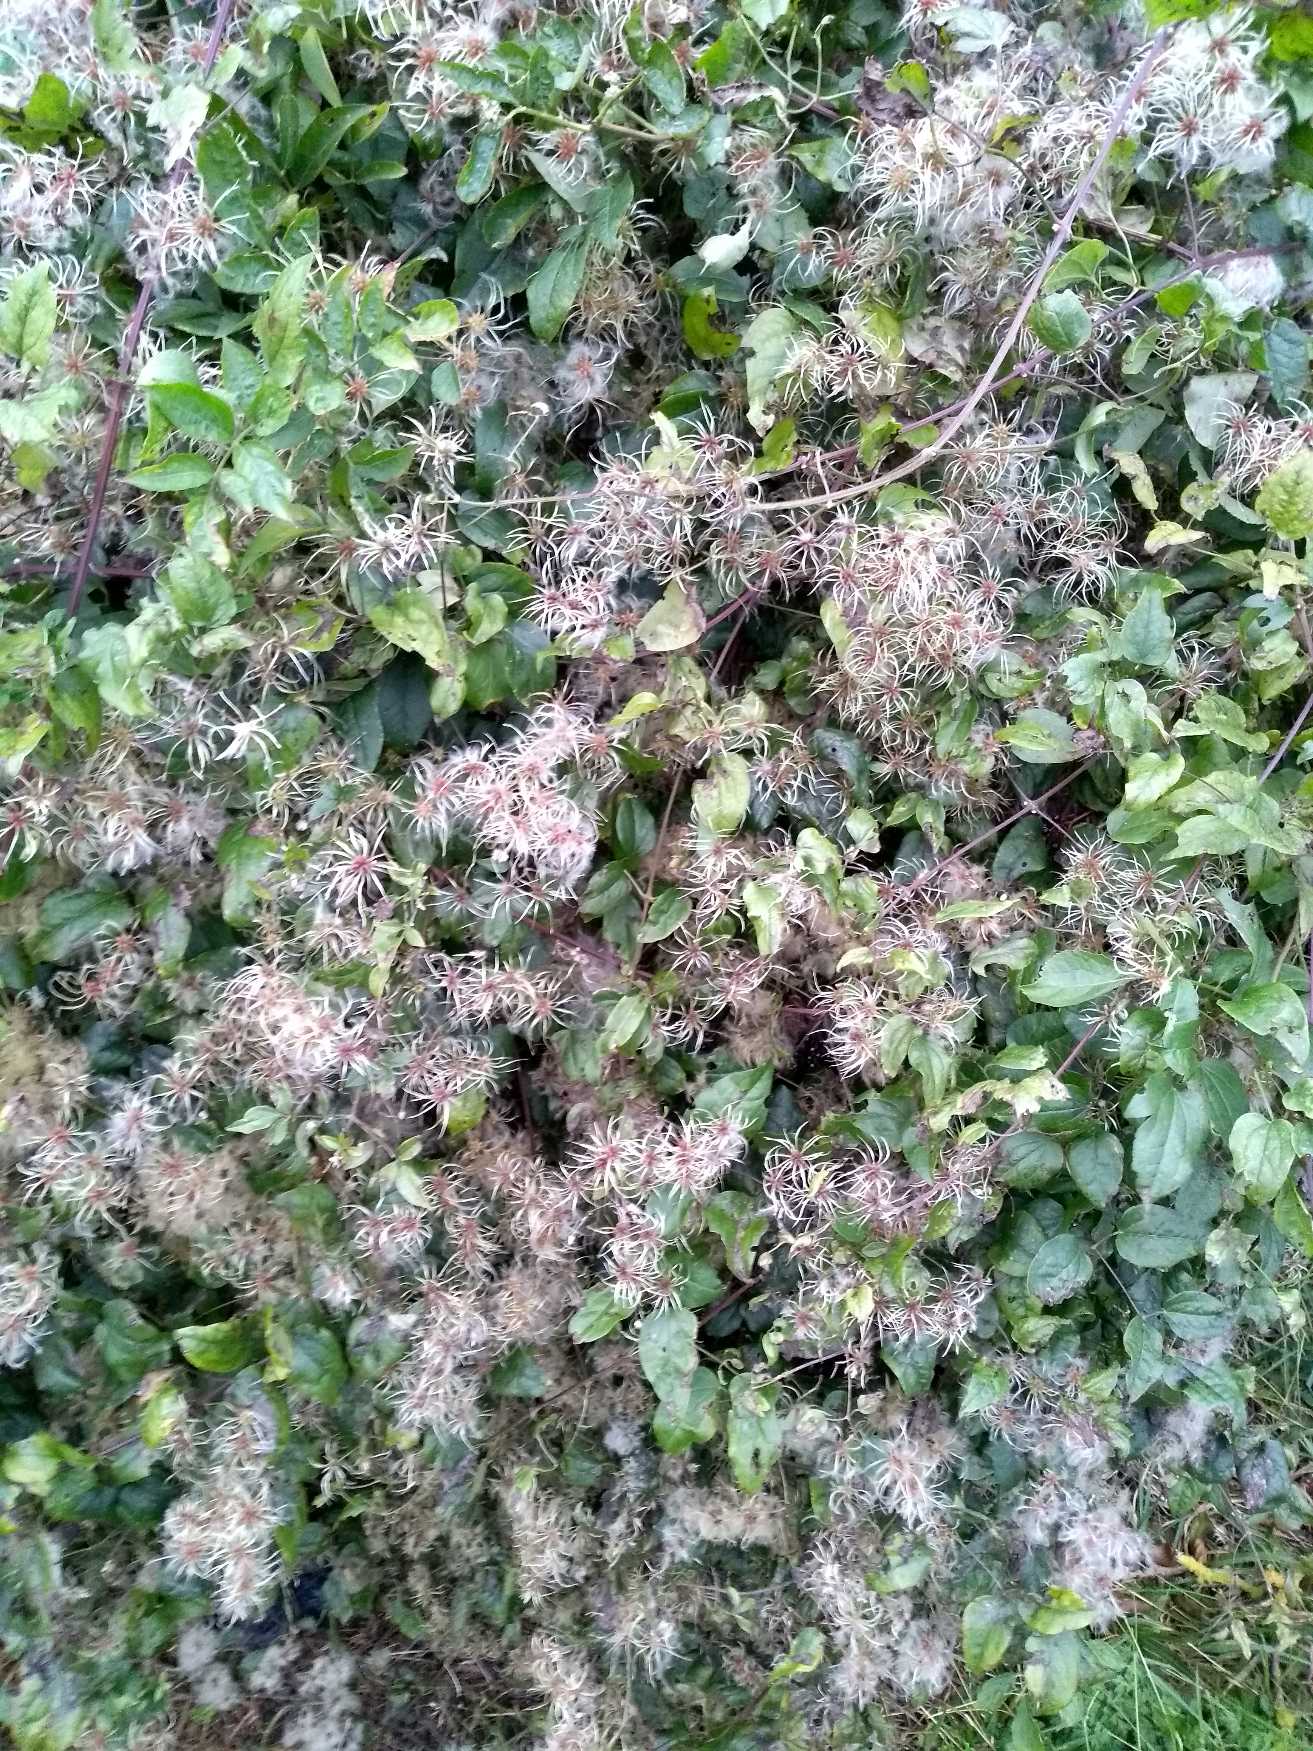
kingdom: Plantae
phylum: Tracheophyta
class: Magnoliopsida
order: Ranunculales
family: Ranunculaceae
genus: Clematis
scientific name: Clematis vitalba
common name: Skovranke
